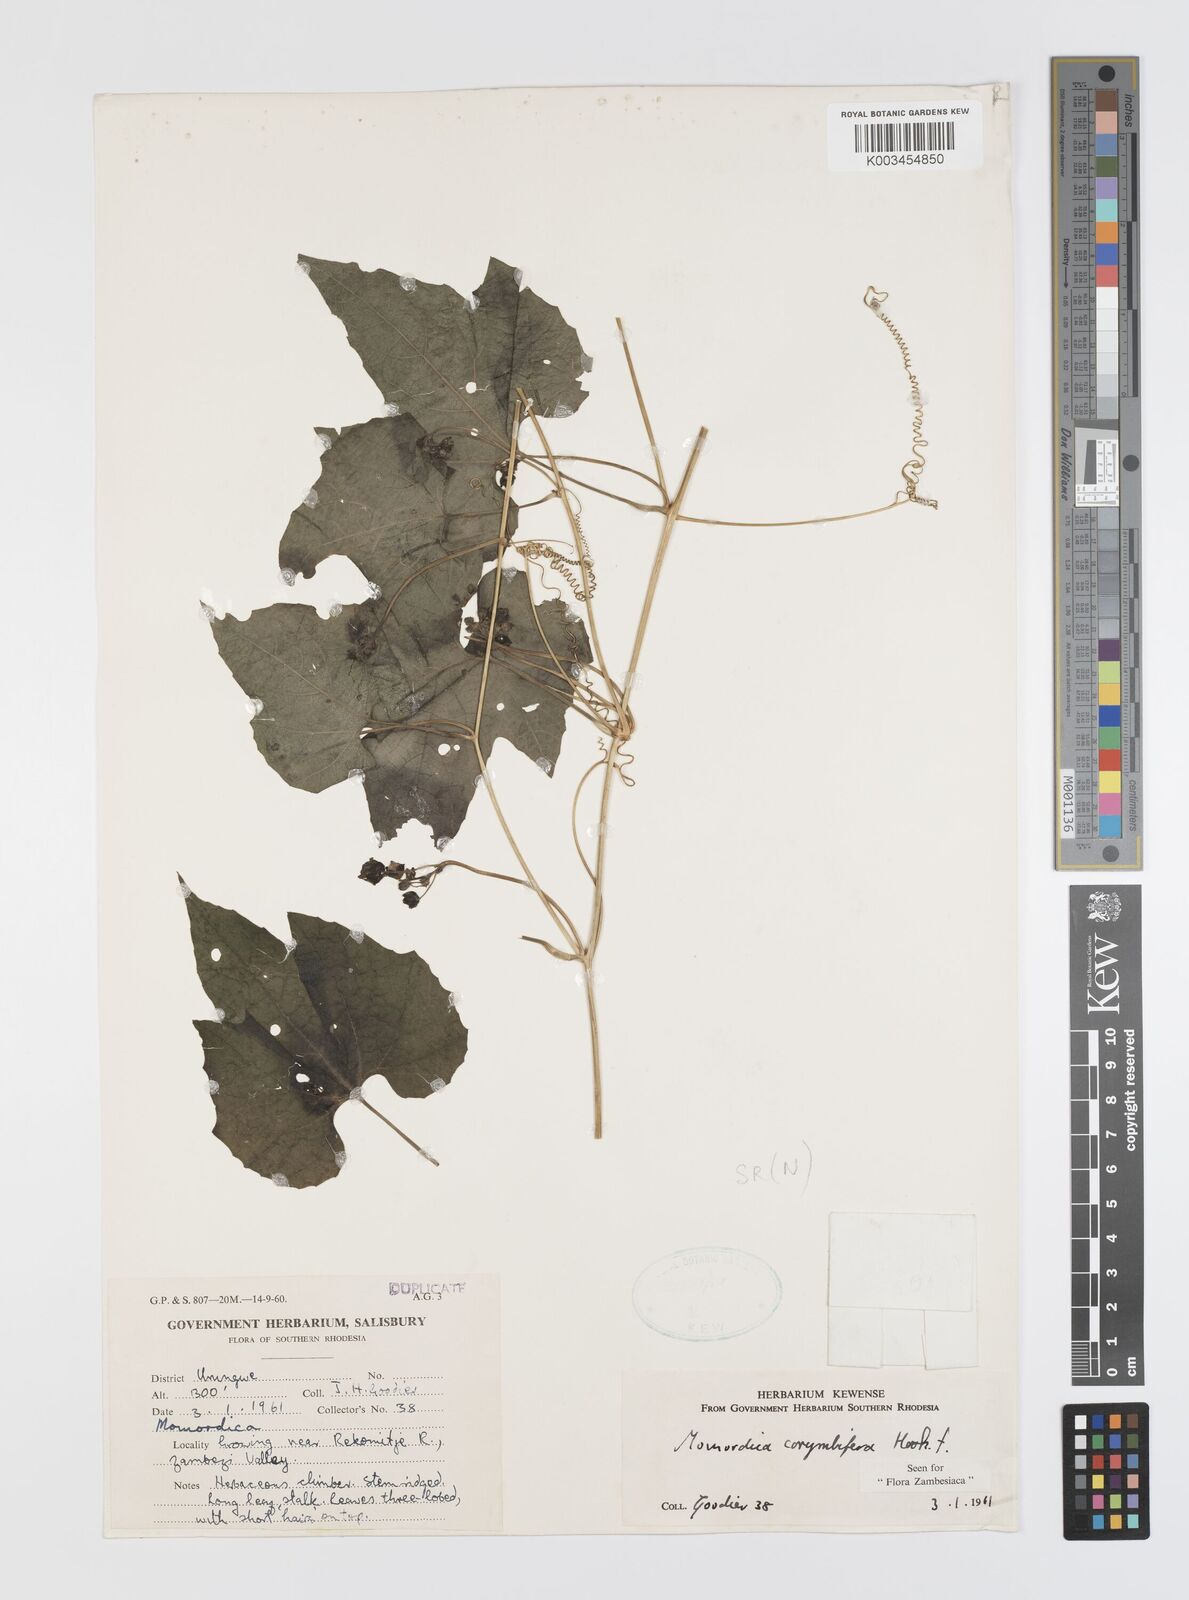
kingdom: Plantae
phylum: Tracheophyta
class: Magnoliopsida
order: Cucurbitales
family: Cucurbitaceae
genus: Momordica
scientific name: Momordica corymbifera
